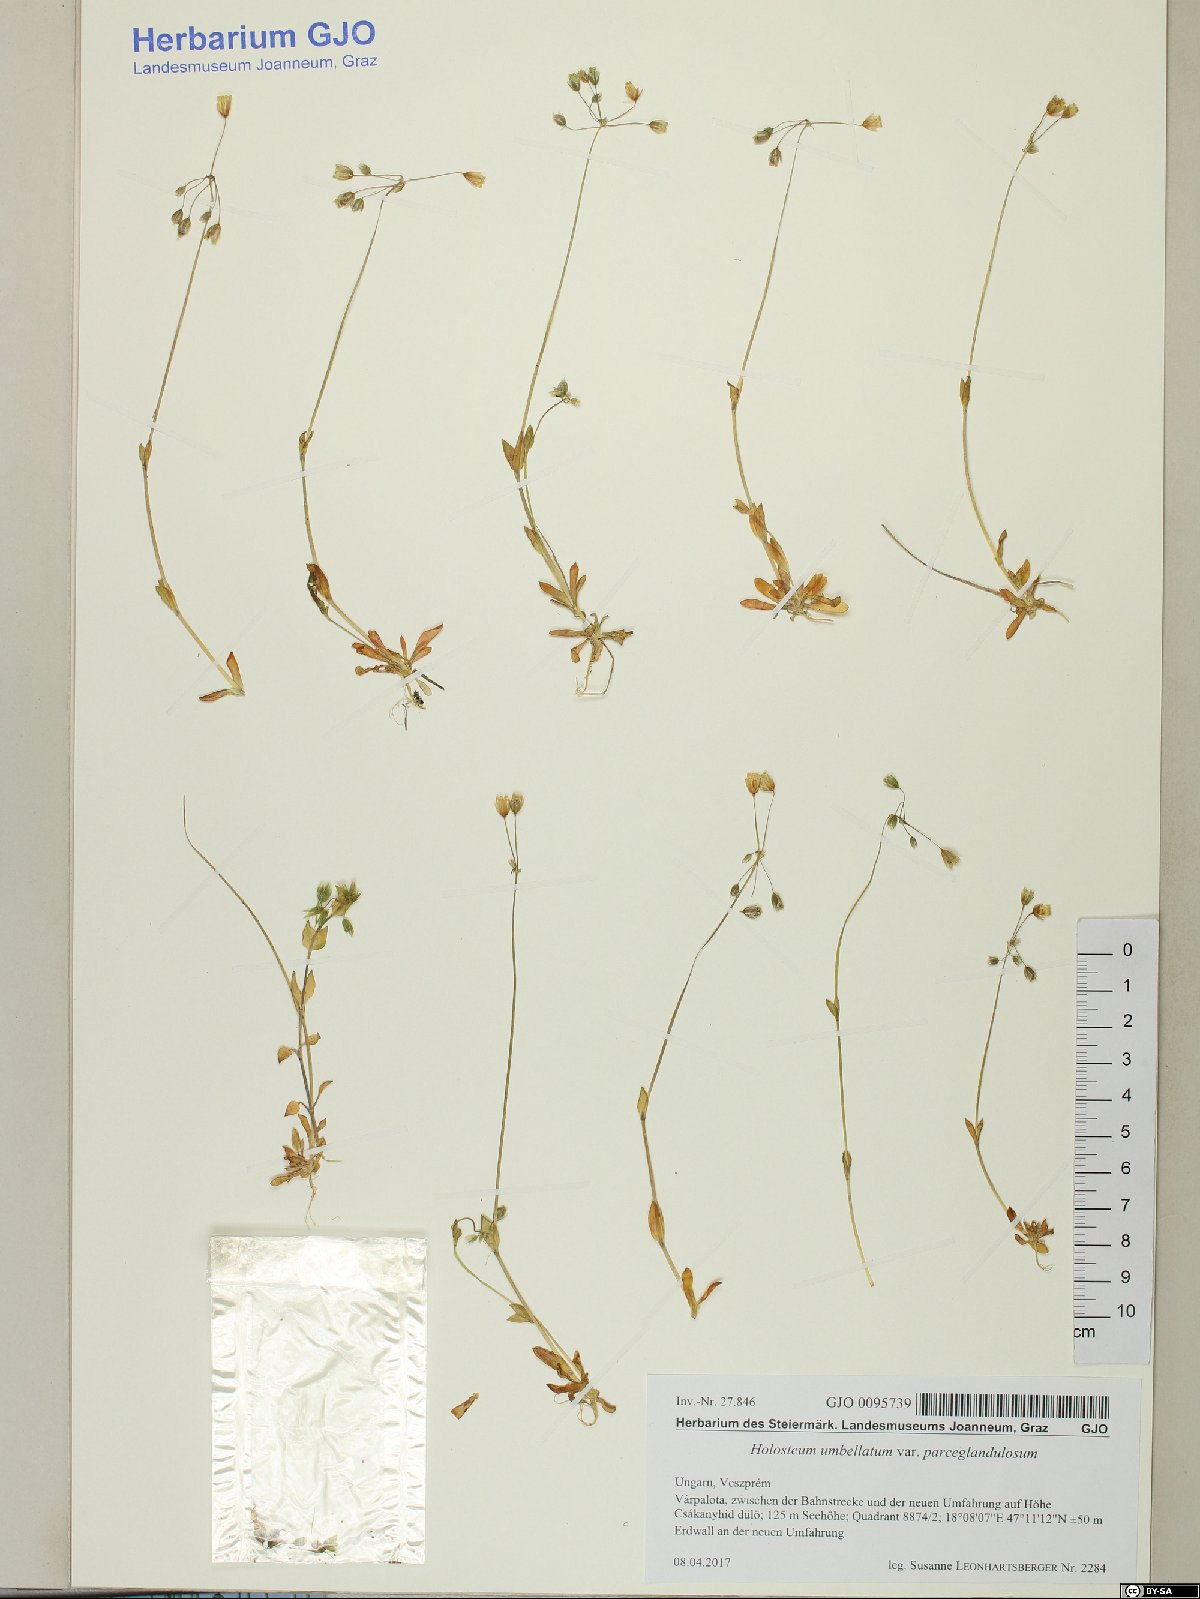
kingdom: Plantae
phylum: Tracheophyta
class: Magnoliopsida
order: Caryophyllales
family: Caryophyllaceae
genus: Holosteum
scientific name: Holosteum umbellatum
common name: Jagged chickweed
